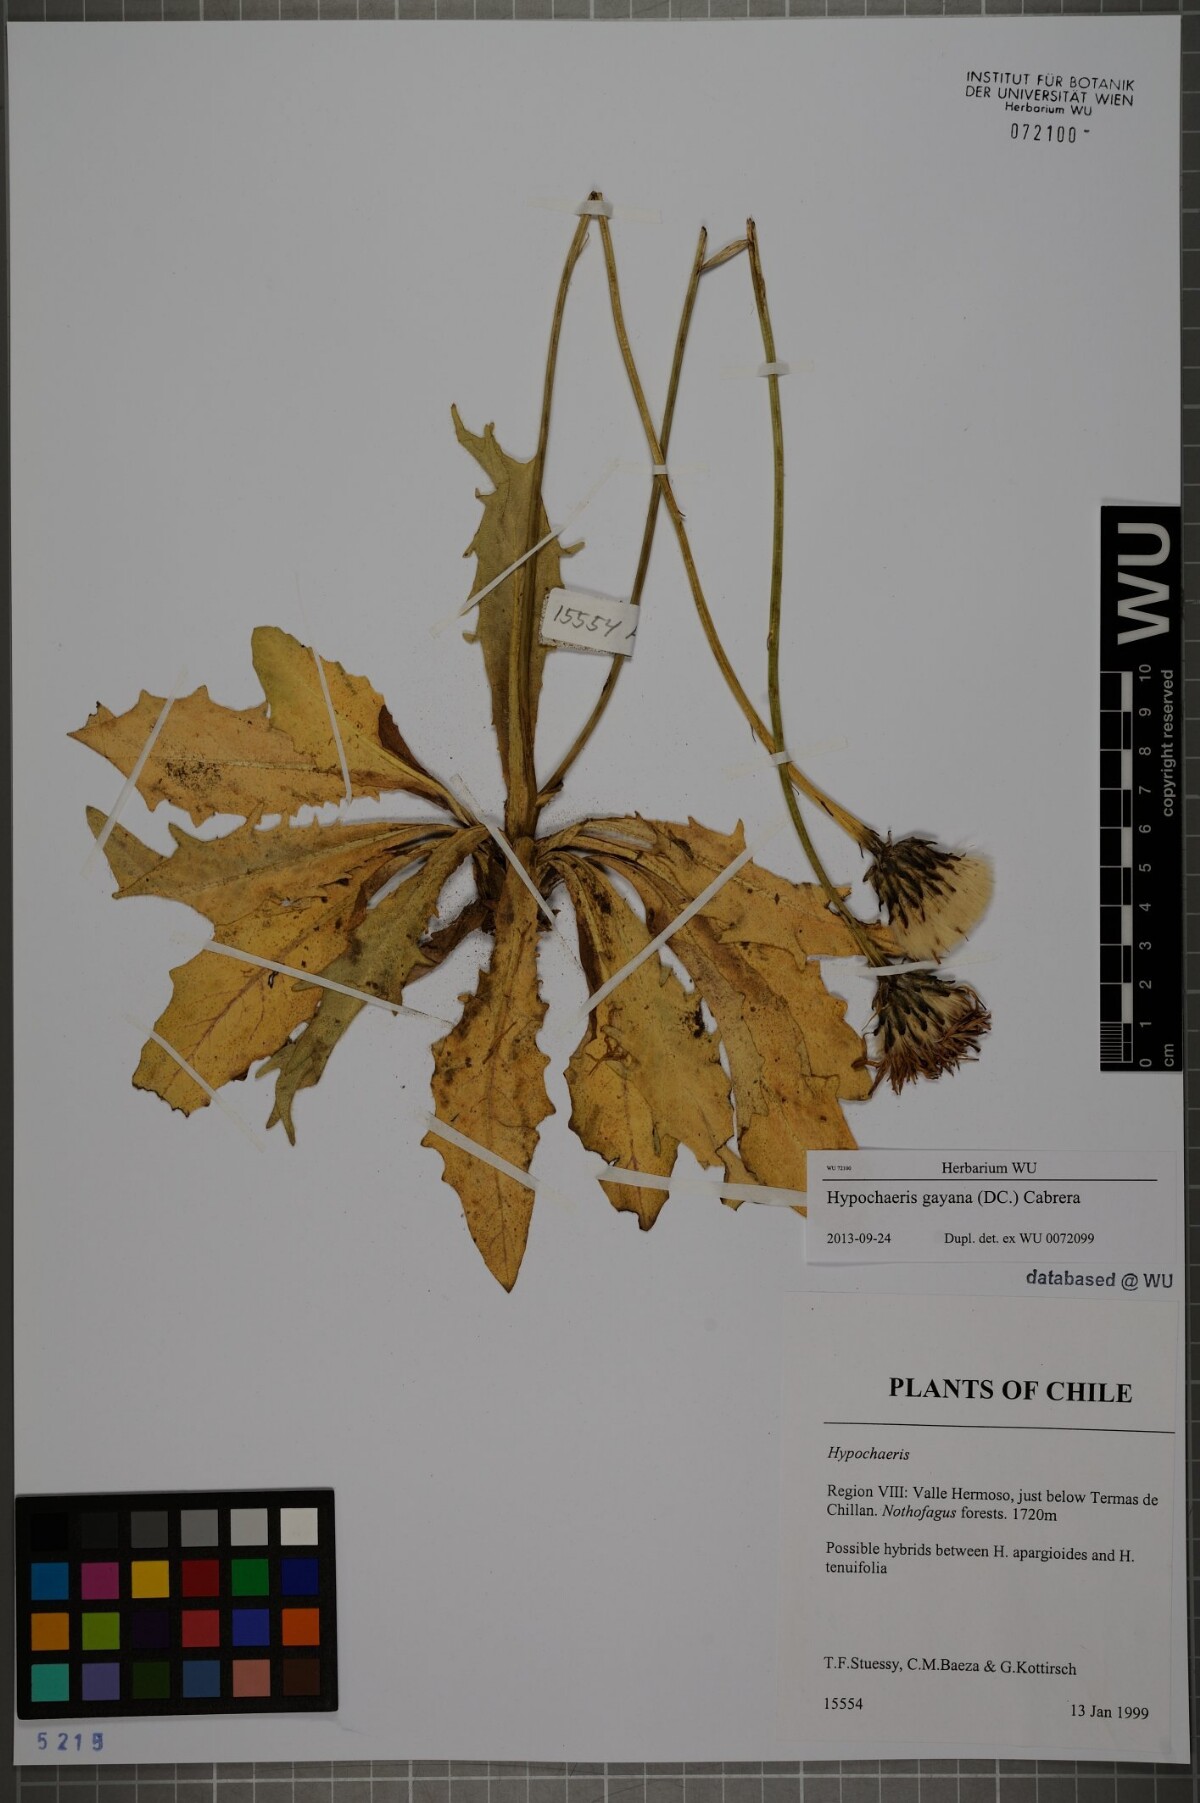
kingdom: Plantae
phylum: Tracheophyta
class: Magnoliopsida
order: Asterales
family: Asteraceae
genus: Hypochaeris
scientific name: Hypochaeris melanolepis
